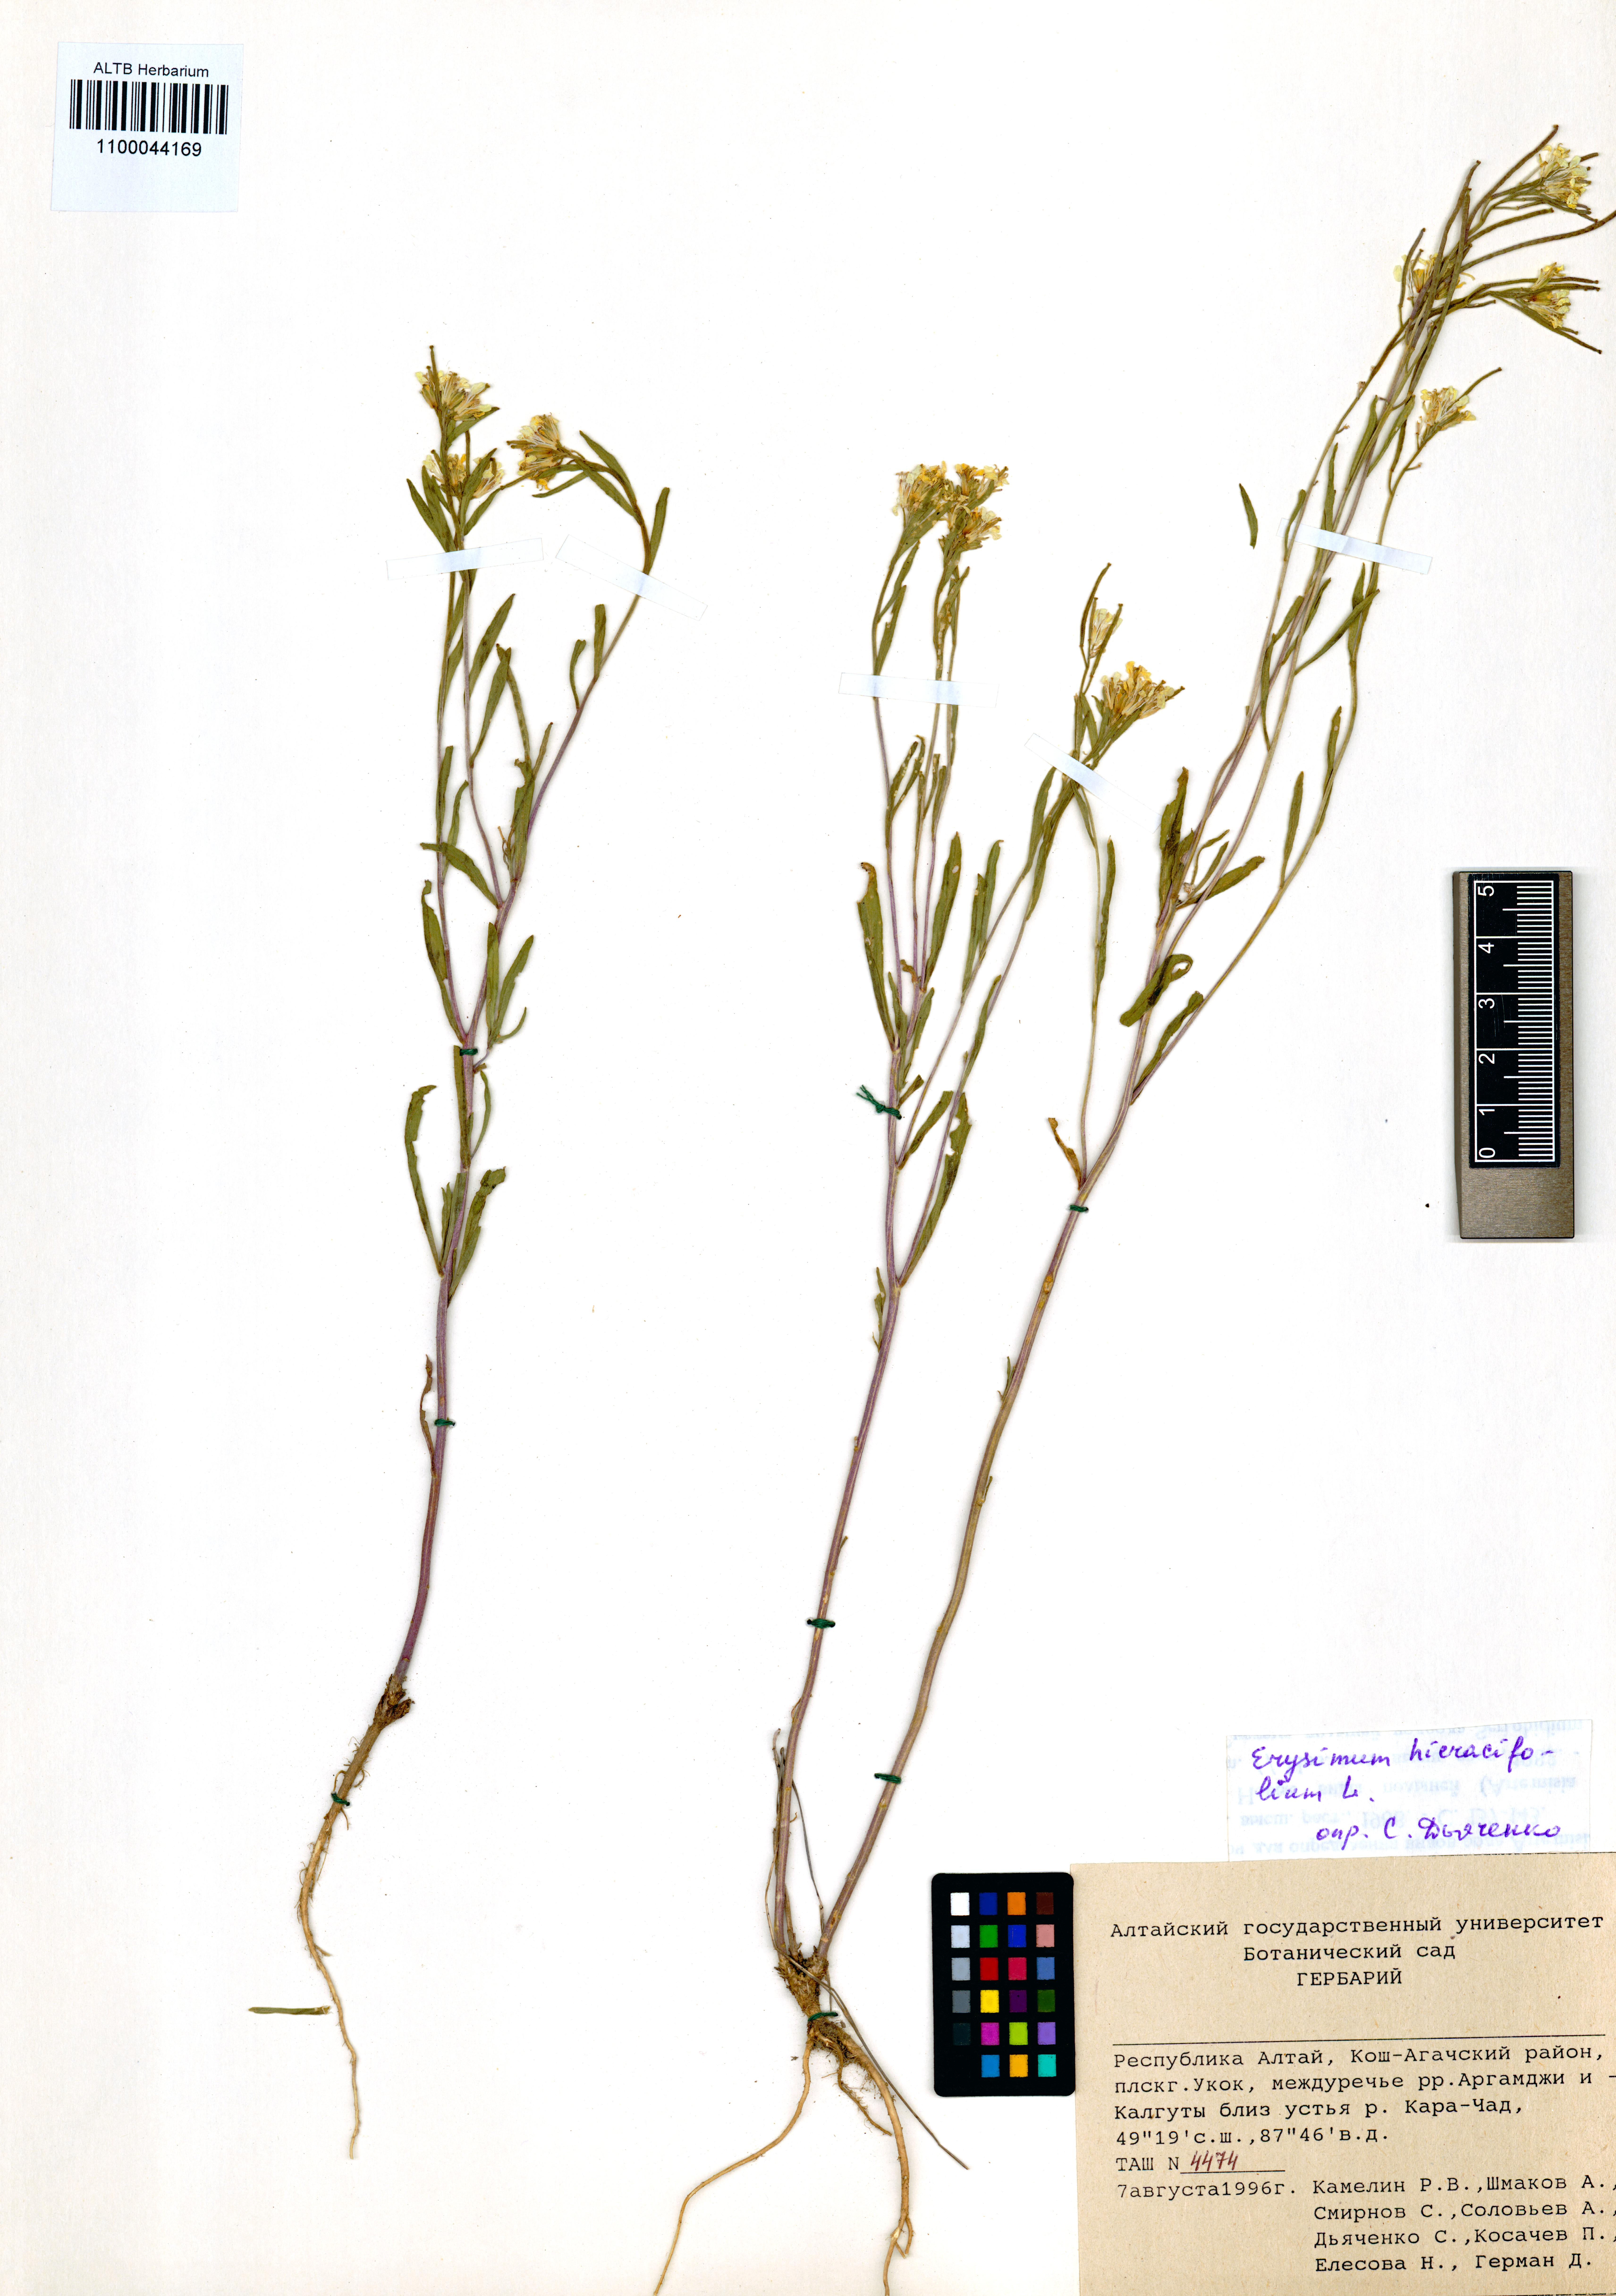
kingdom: Plantae
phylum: Tracheophyta
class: Magnoliopsida
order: Brassicales
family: Brassicaceae
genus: Erysimum
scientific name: Erysimum hieraciifolium
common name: European wallflower
